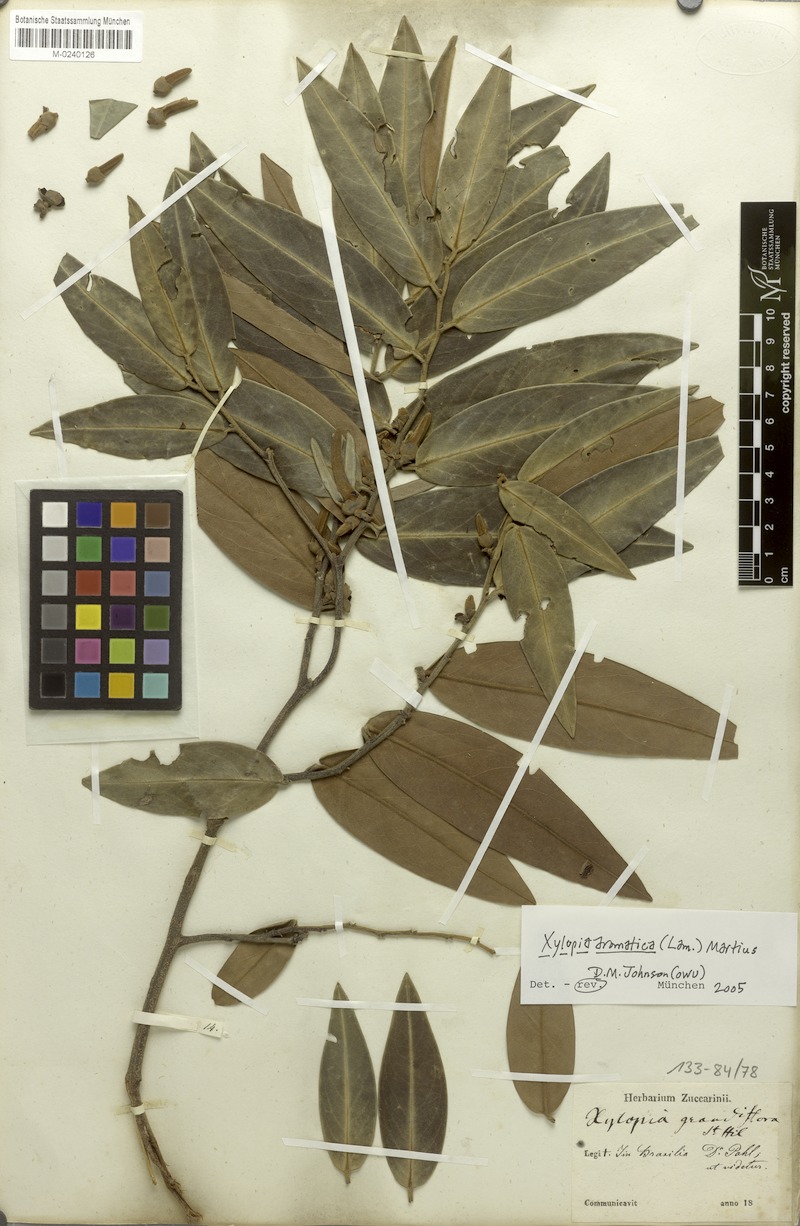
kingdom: Plantae
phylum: Tracheophyta
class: Magnoliopsida
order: Magnoliales
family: Annonaceae
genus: Xylopia
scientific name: Xylopia aromatica
